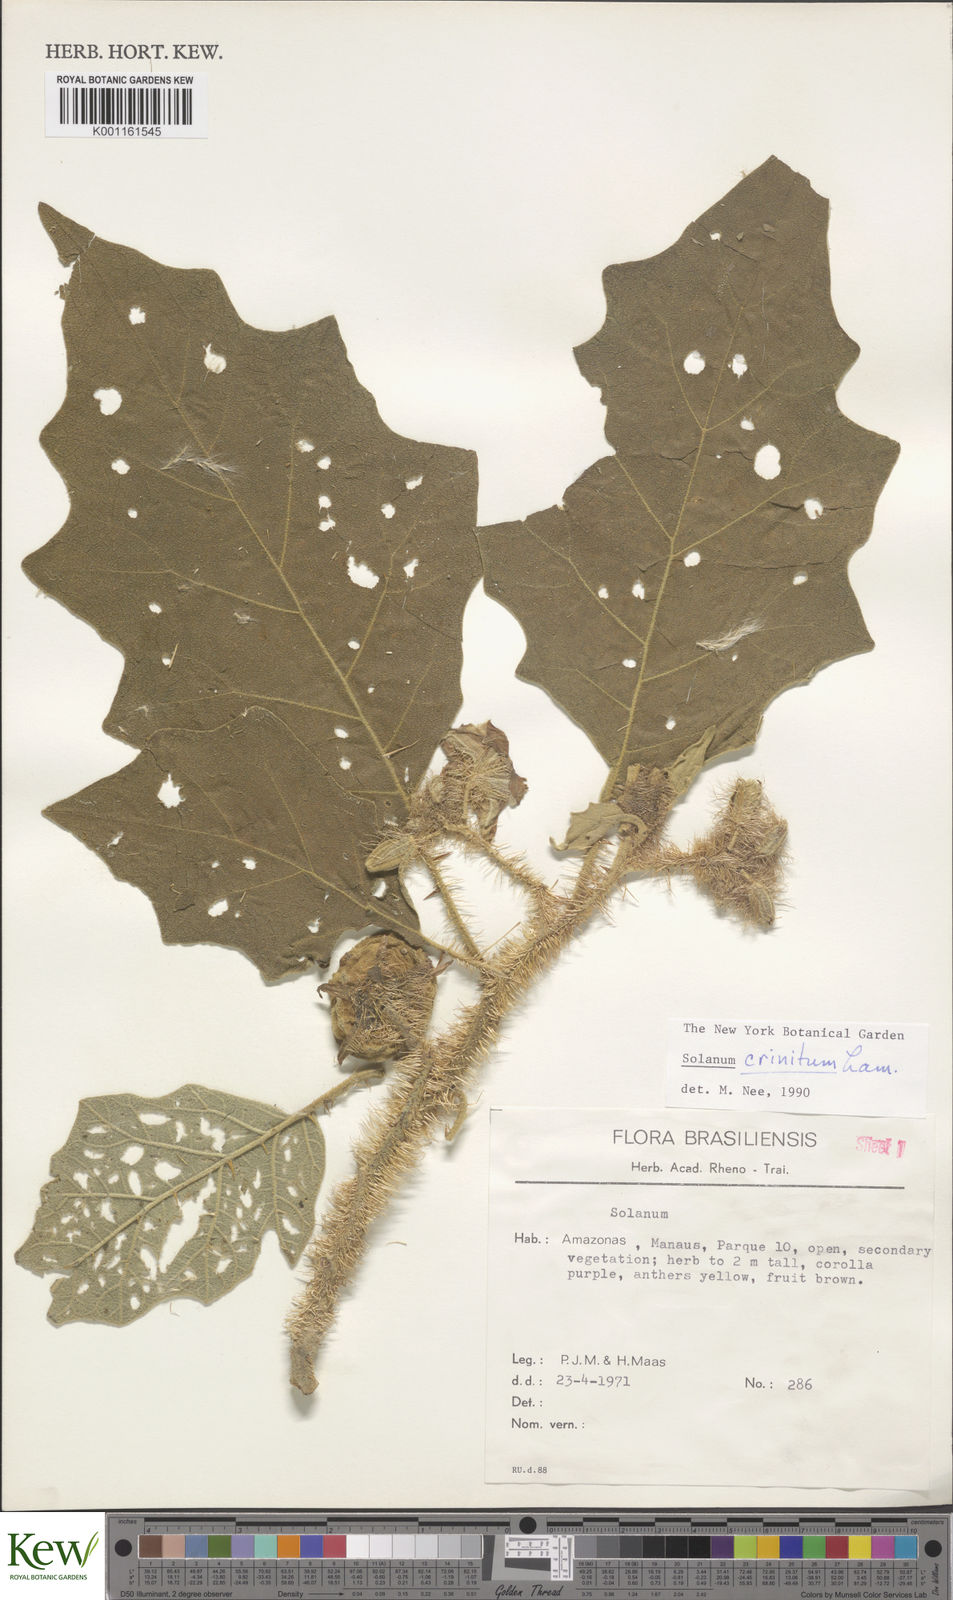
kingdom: Plantae
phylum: Tracheophyta
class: Magnoliopsida
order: Solanales
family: Solanaceae
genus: Solanum
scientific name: Solanum crinitum
